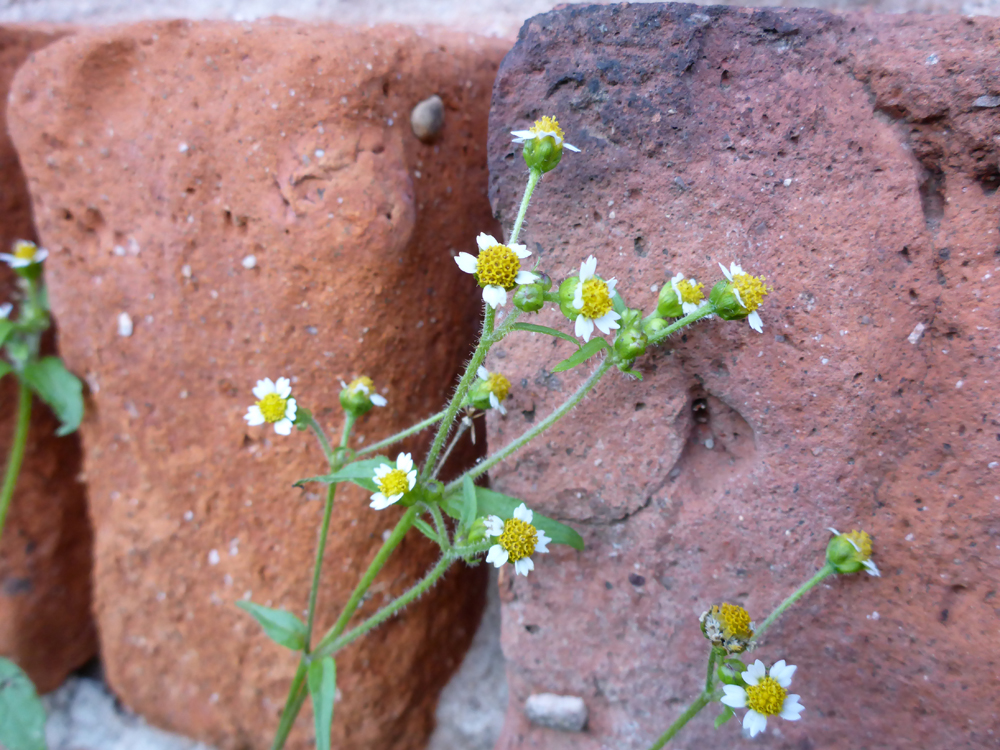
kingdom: Plantae
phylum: Tracheophyta
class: Magnoliopsida
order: Asterales
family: Asteraceae
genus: Galinsoga
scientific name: Galinsoga quadriradiata
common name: Shaggy soldier
